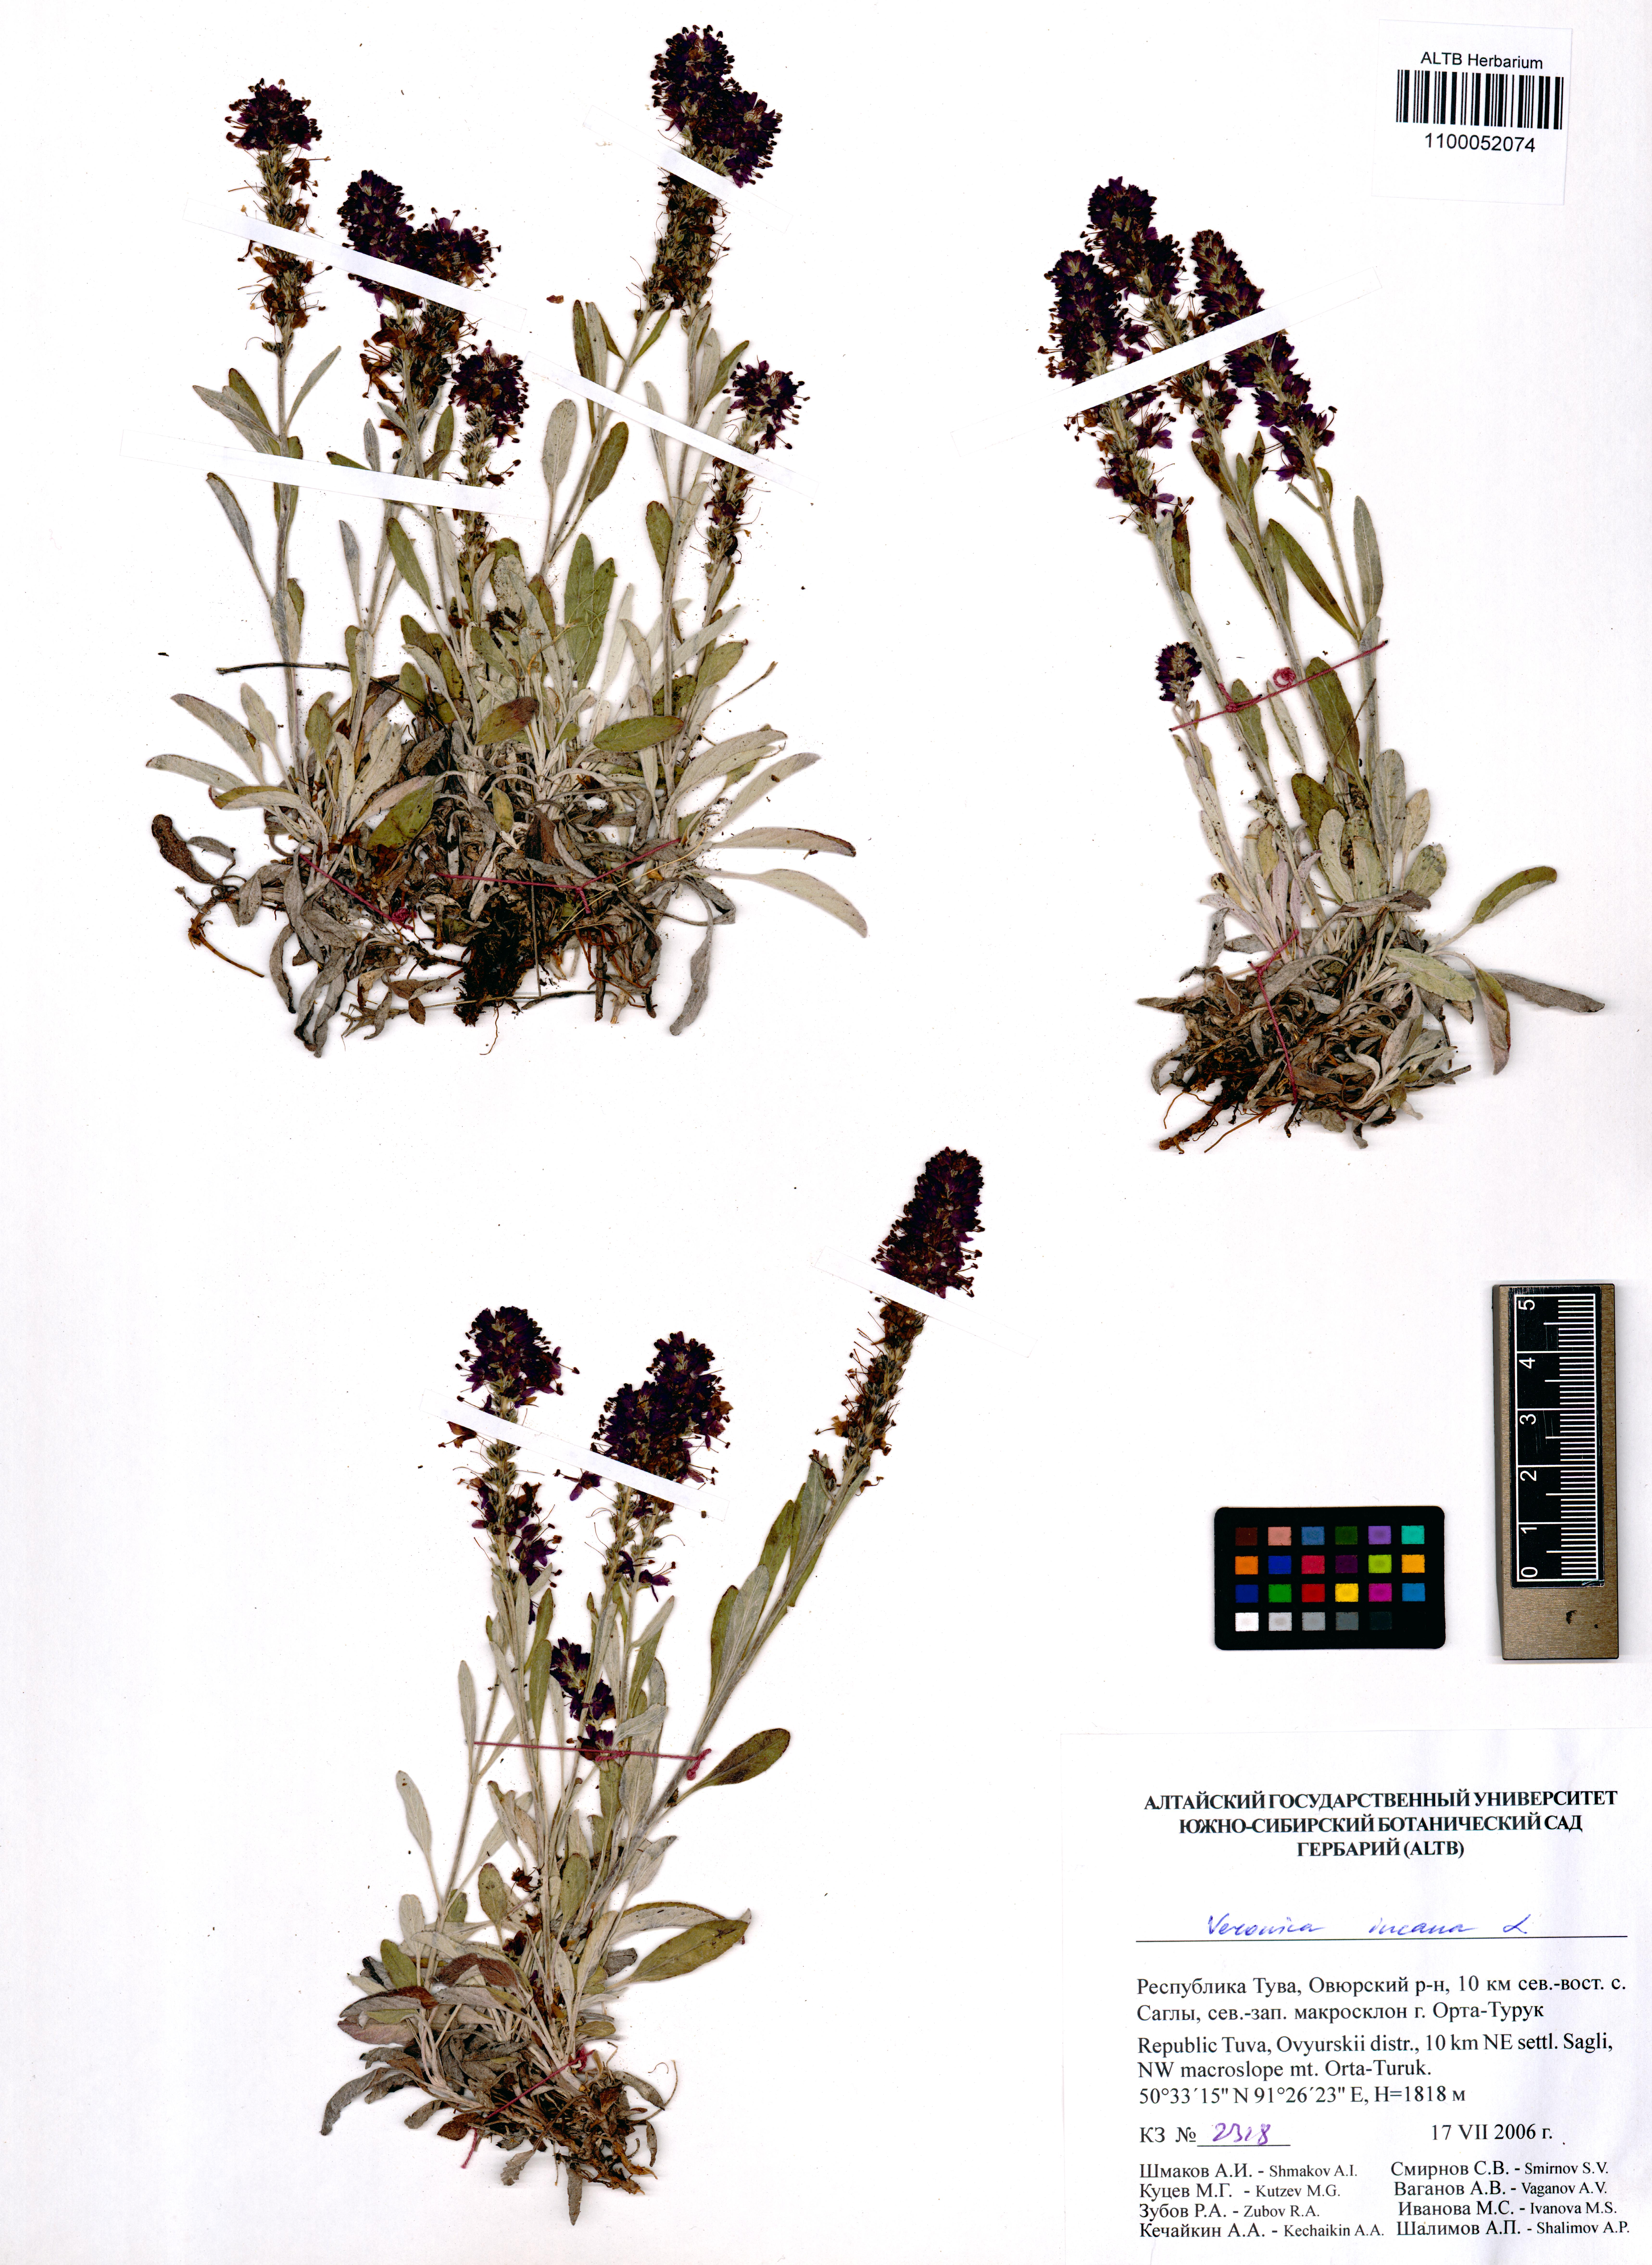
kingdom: Plantae
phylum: Tracheophyta
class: Magnoliopsida
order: Lamiales
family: Plantaginaceae
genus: Veronica
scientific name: Veronica incana
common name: Silver speedwell
